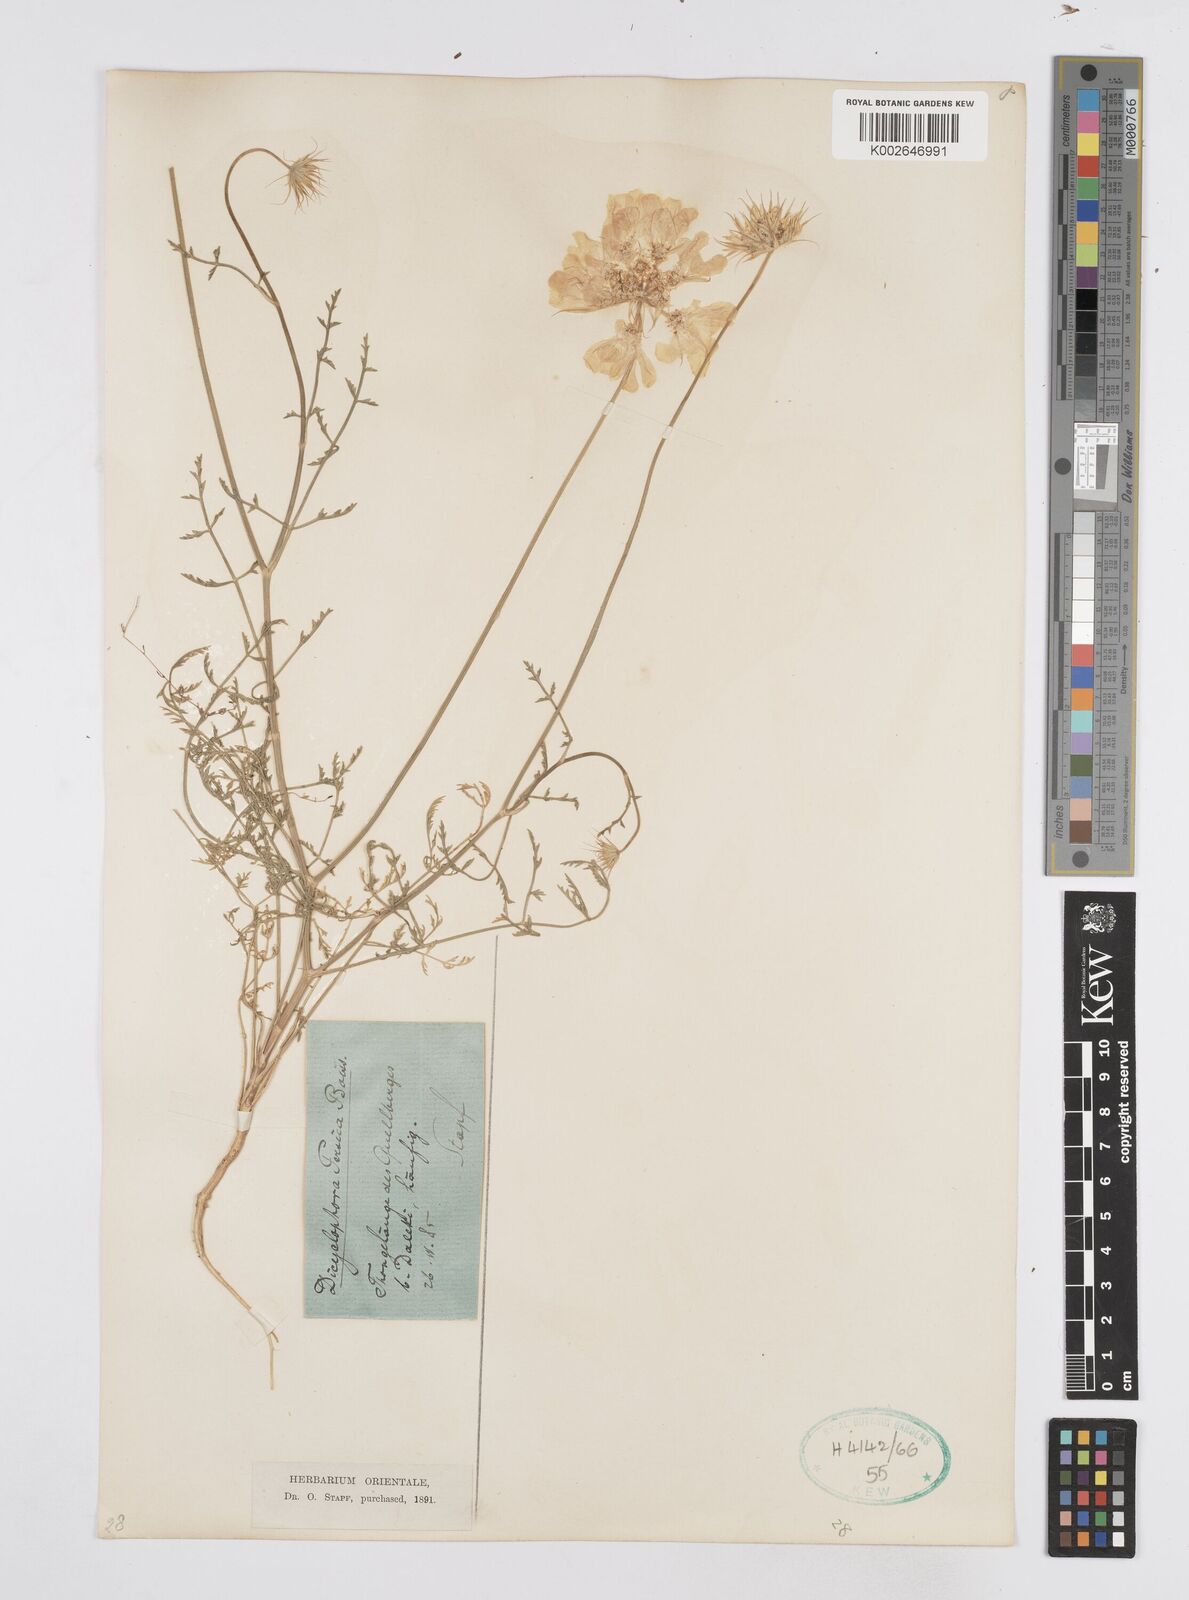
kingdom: Plantae
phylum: Tracheophyta
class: Magnoliopsida
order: Apiales
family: Apiaceae
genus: Dicyclophora
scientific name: Dicyclophora persica
